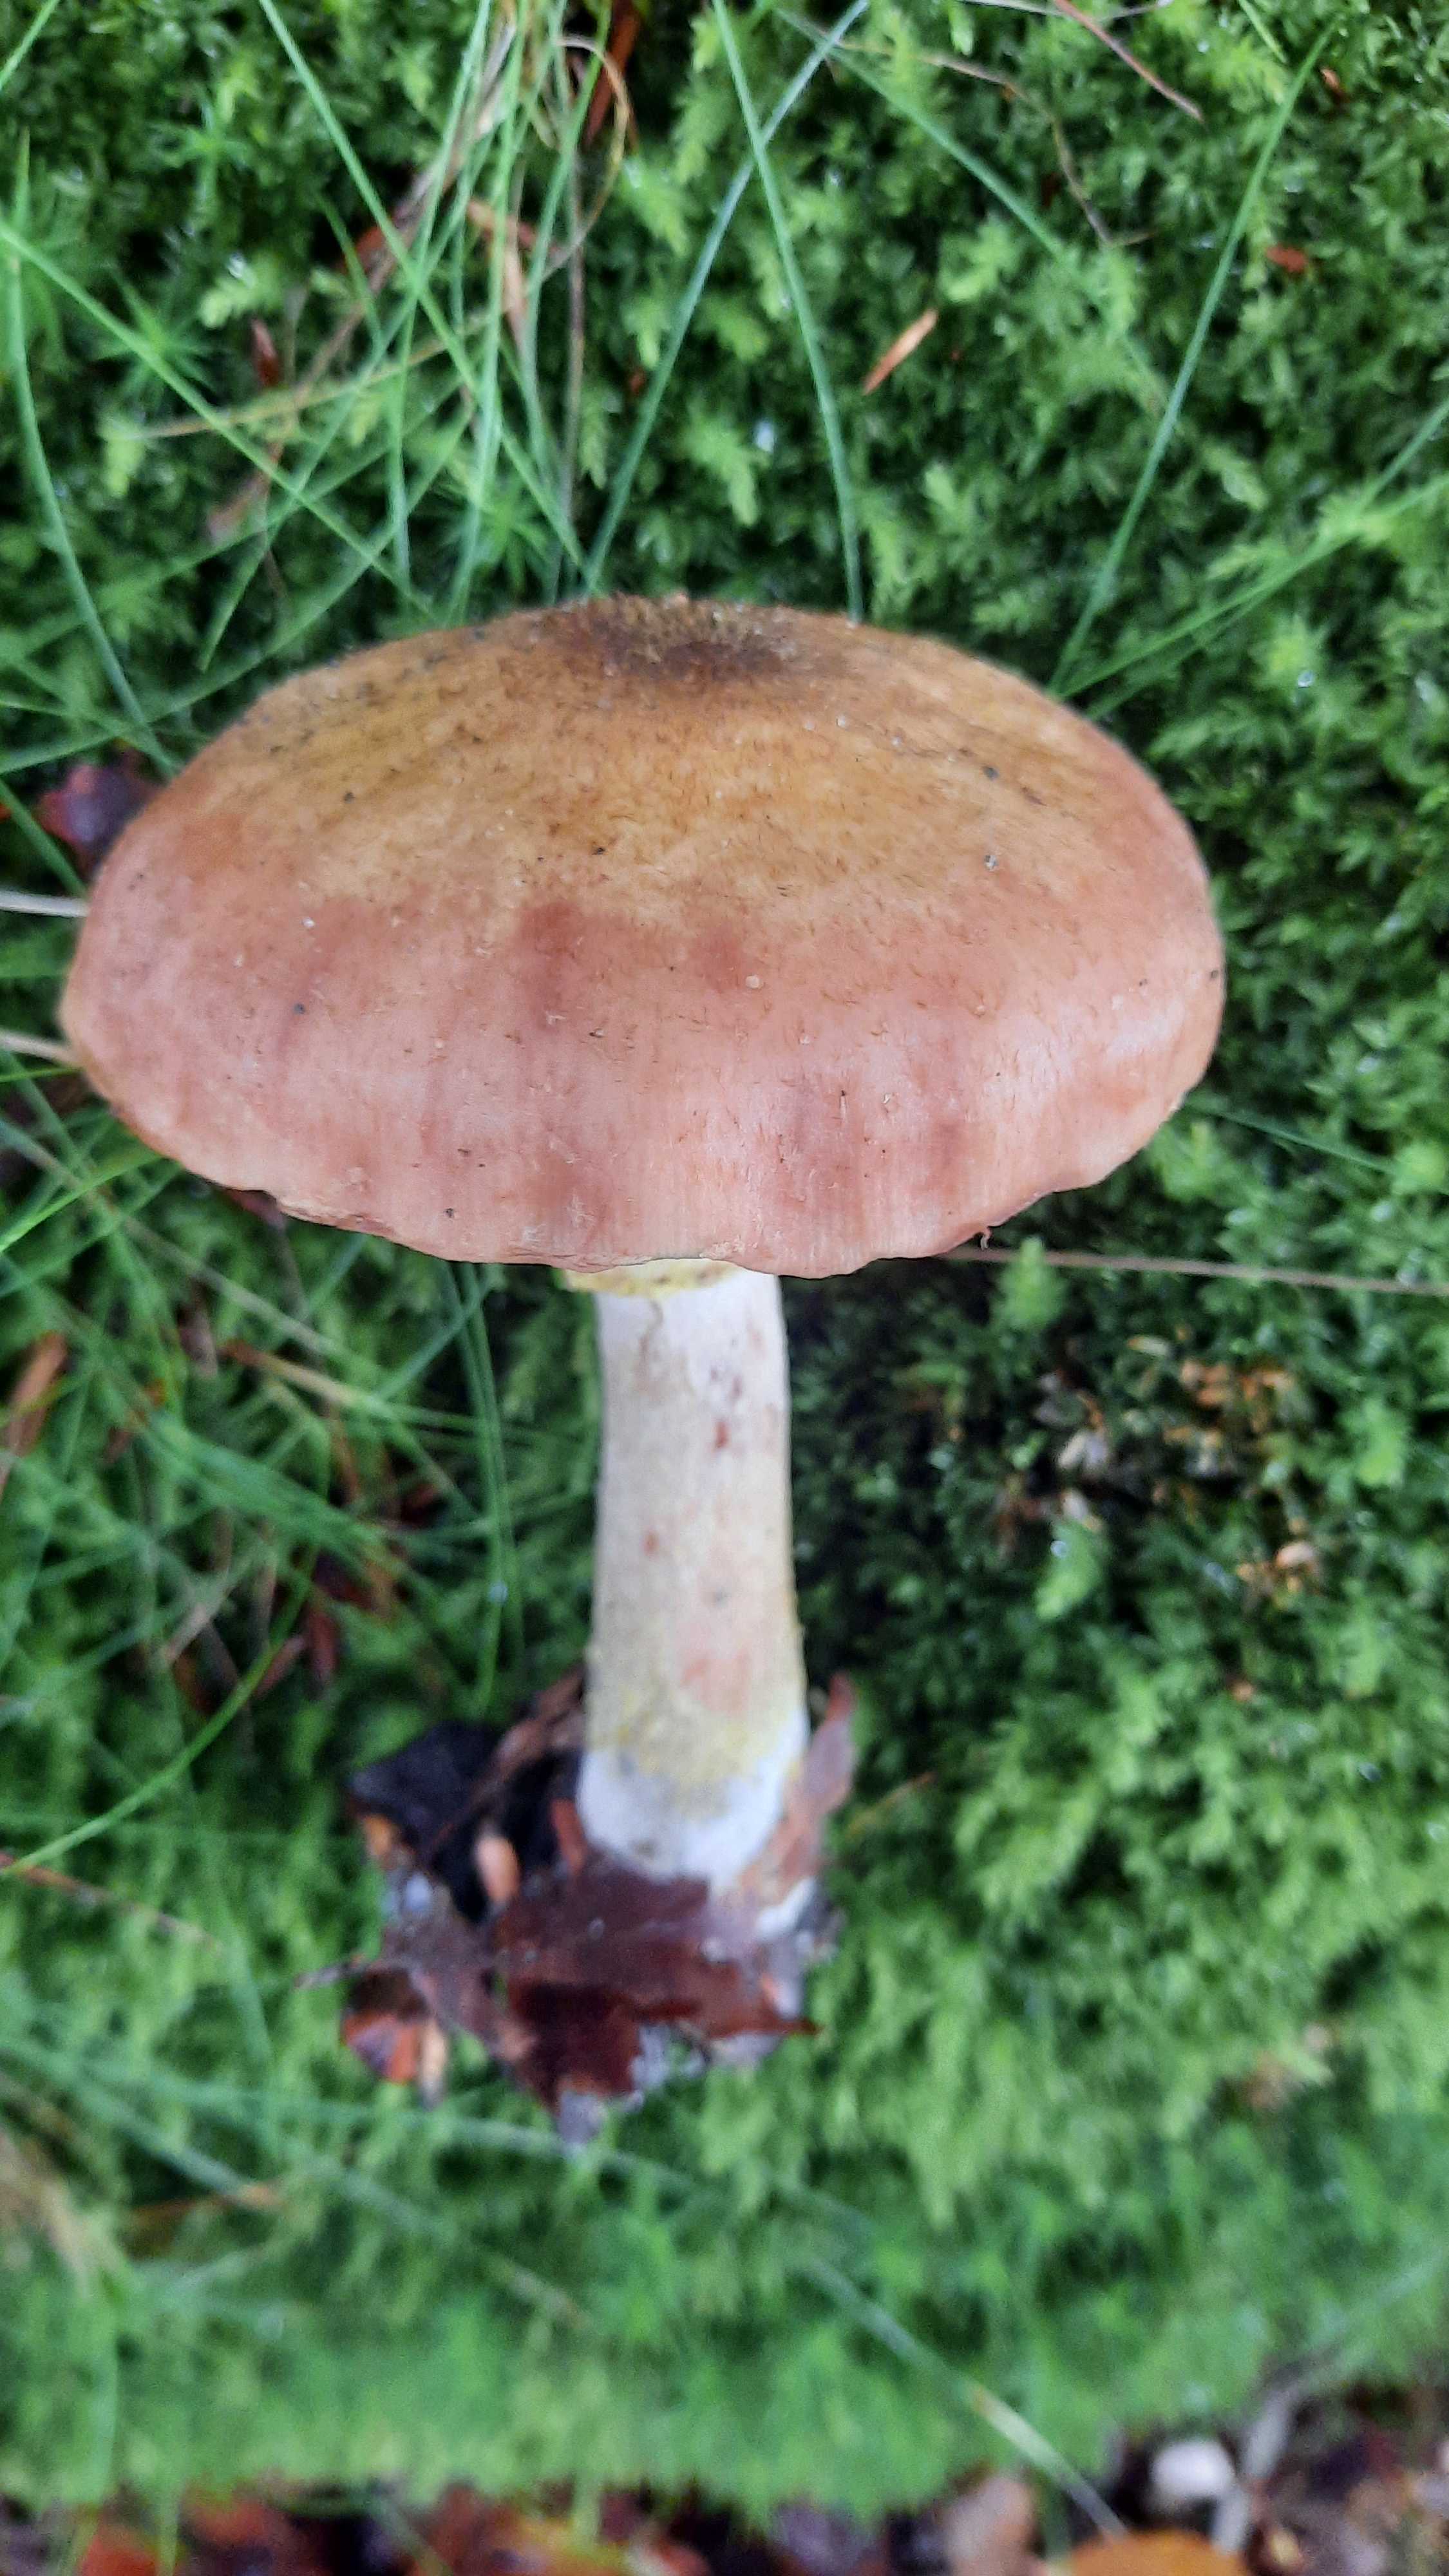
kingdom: Fungi
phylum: Basidiomycota
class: Agaricomycetes
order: Agaricales
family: Physalacriaceae
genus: Armillaria
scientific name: Armillaria lutea
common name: køllestokket honningsvamp
